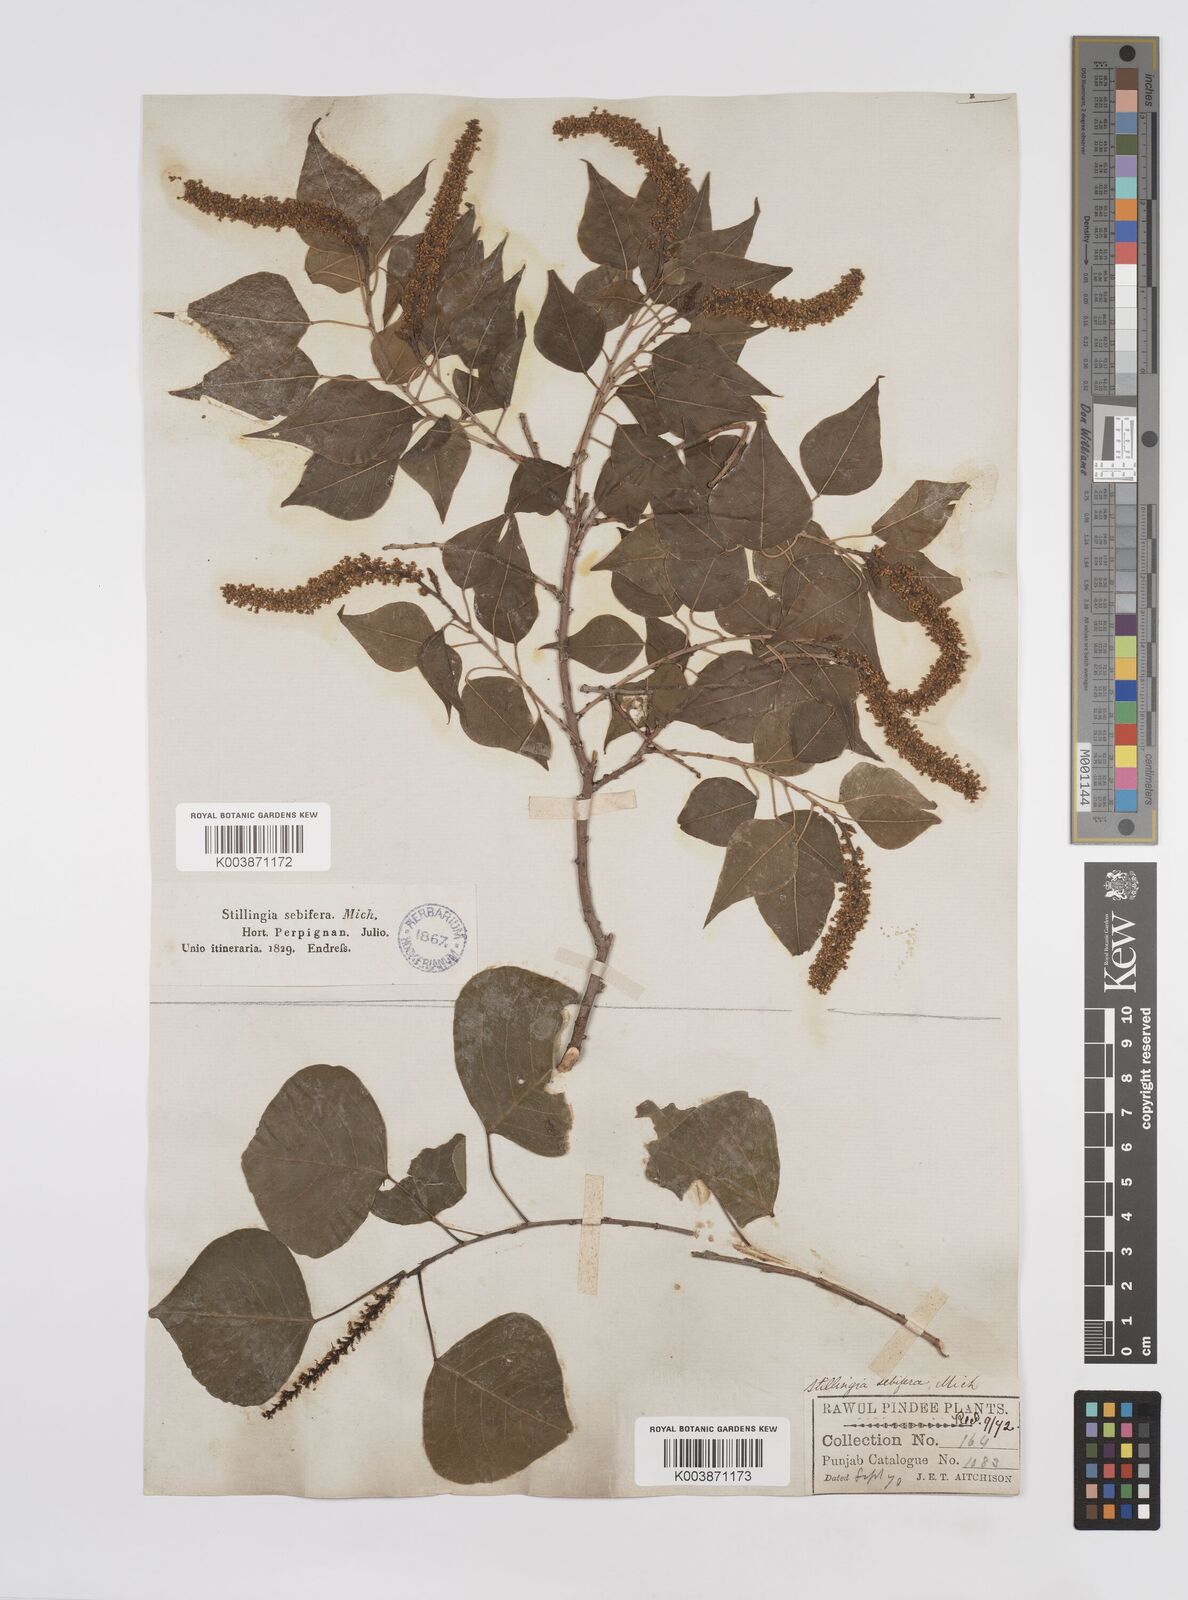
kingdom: Plantae
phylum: Tracheophyta
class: Magnoliopsida
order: Malpighiales
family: Euphorbiaceae
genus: Triadica
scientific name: Triadica sebifera
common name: Chinese tallow
